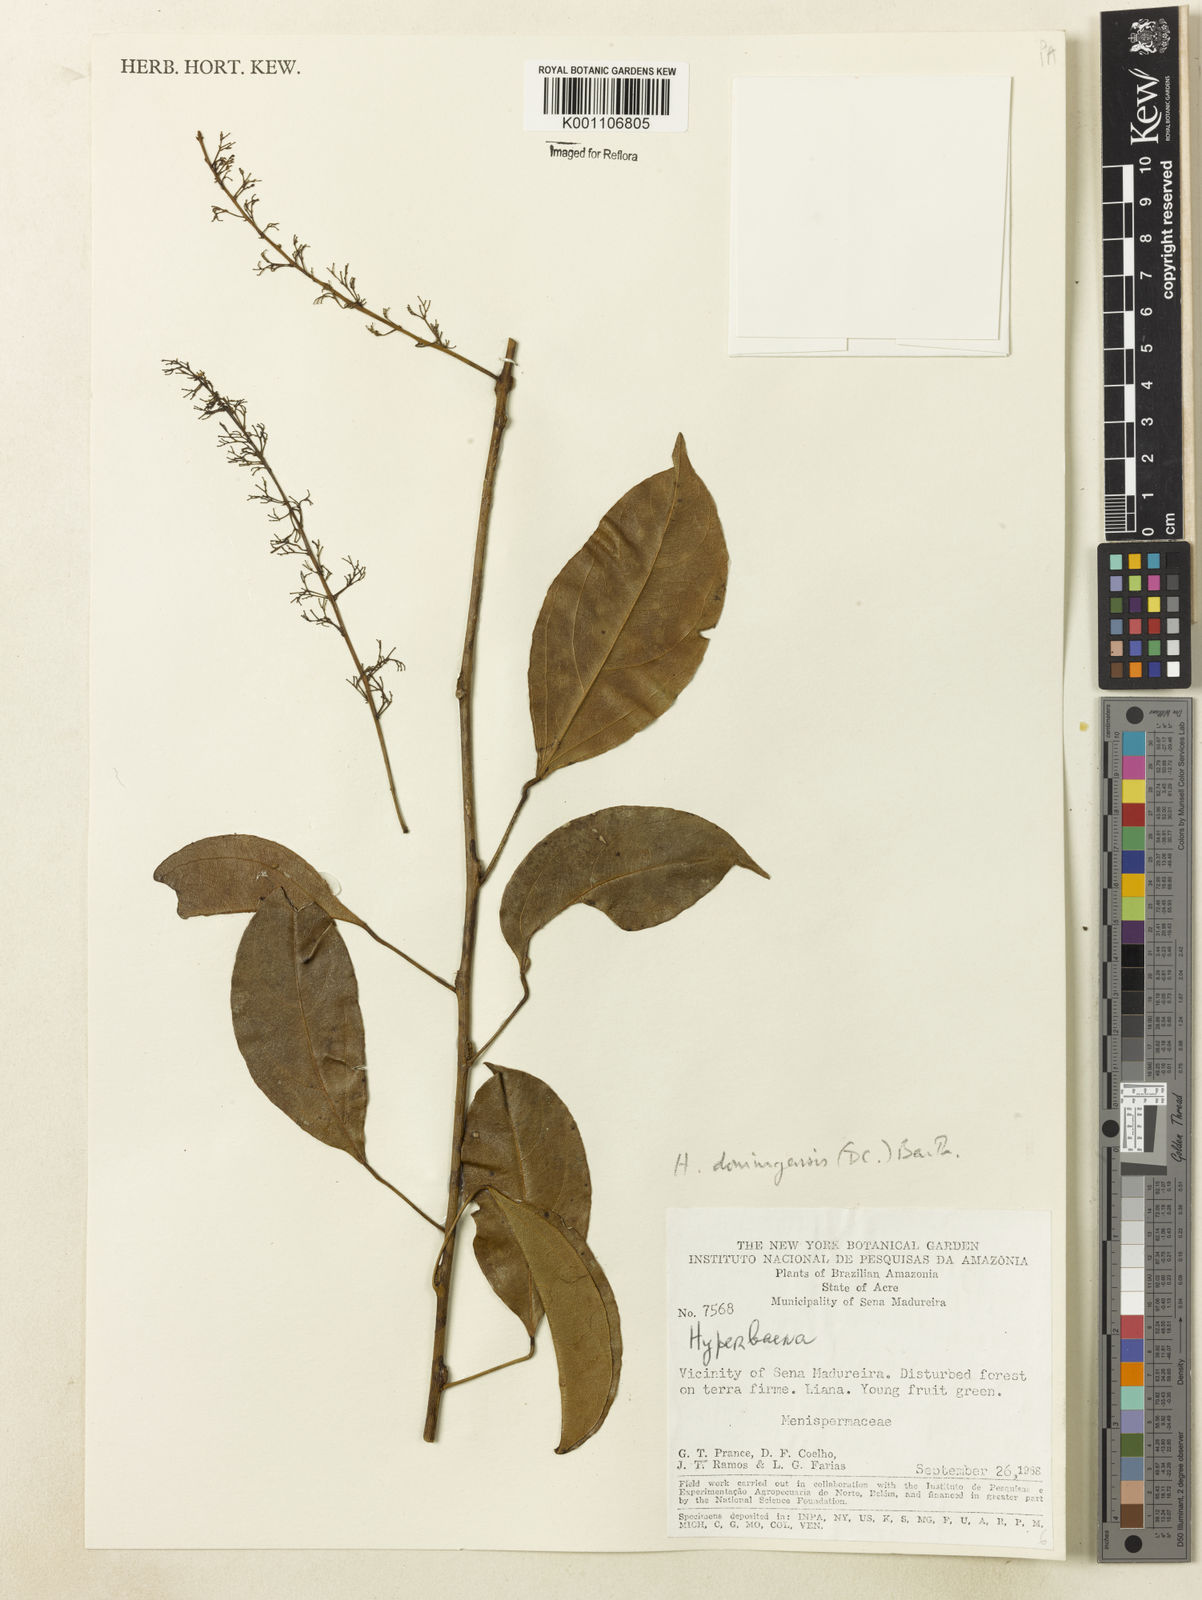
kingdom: Plantae
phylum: Tracheophyta
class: Magnoliopsida
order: Ranunculales
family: Menispermaceae
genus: Hyperbaena
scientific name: Hyperbaena domingensis
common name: Forest snakevine
